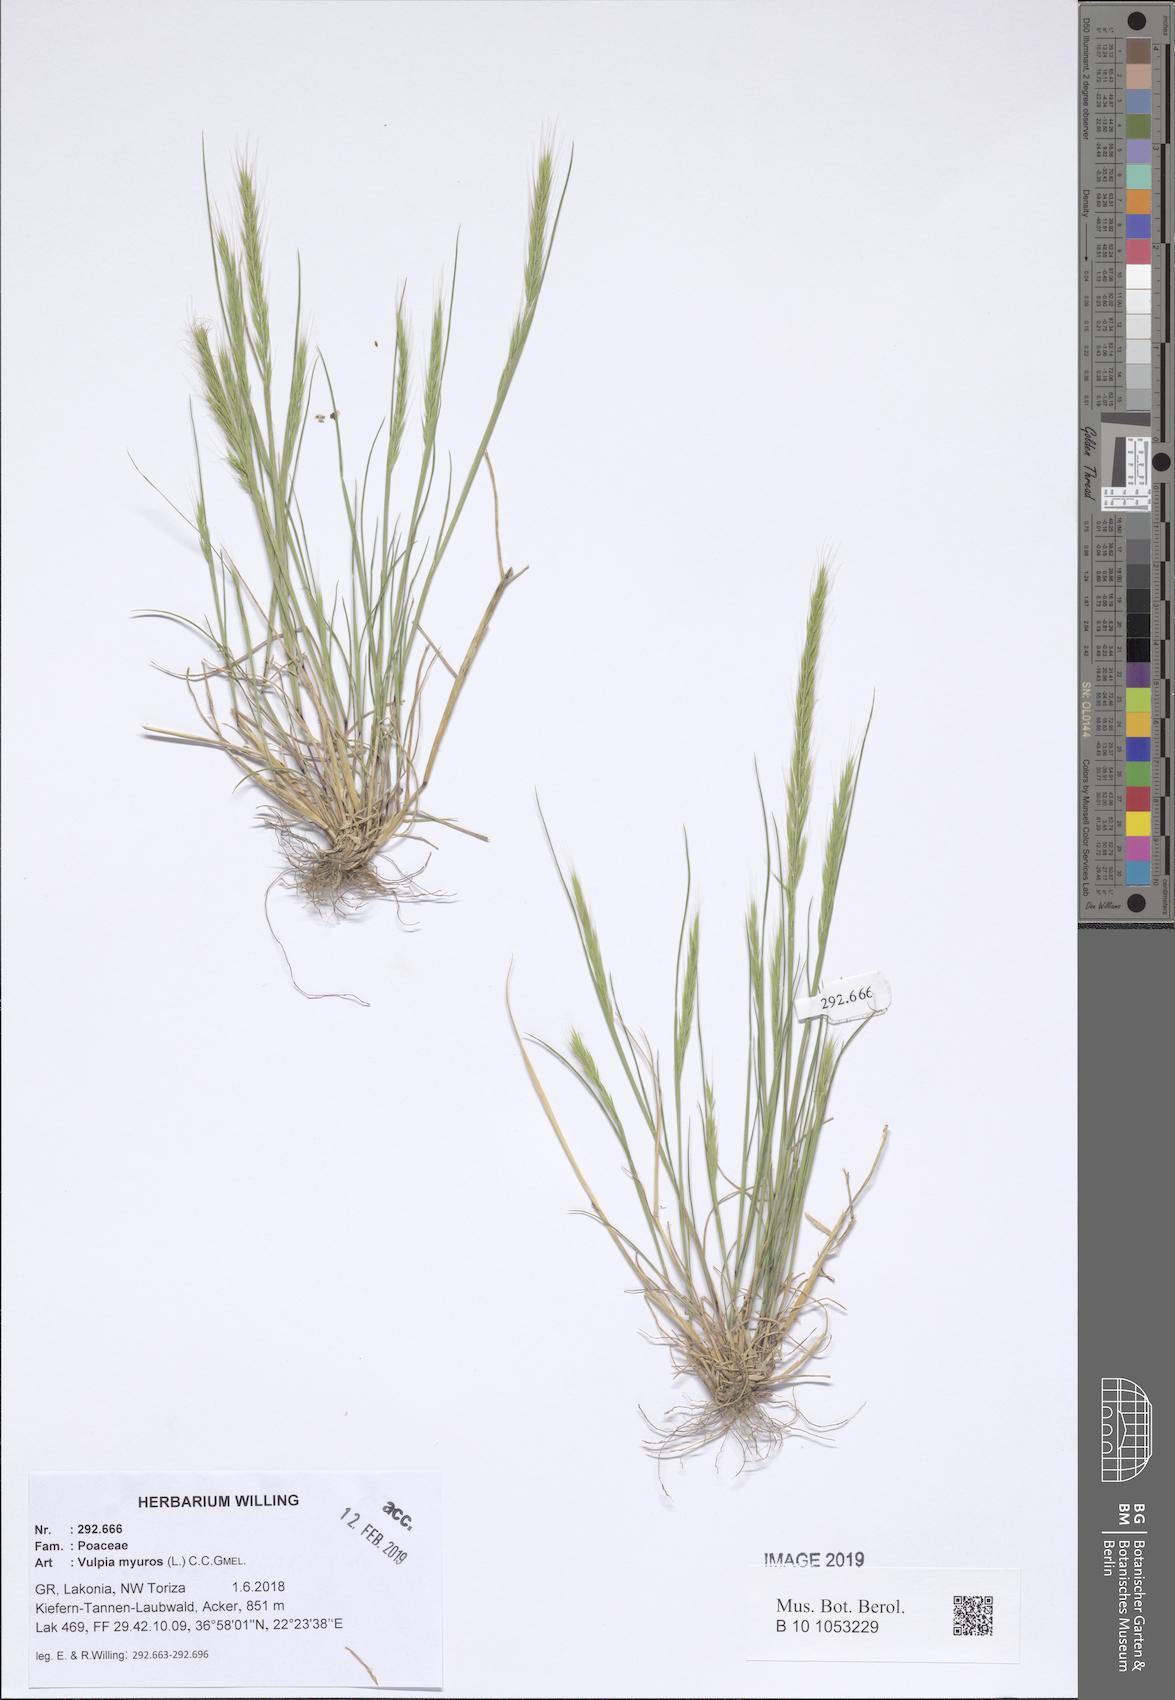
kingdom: Plantae
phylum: Tracheophyta
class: Liliopsida
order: Poales
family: Poaceae
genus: Festuca
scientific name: Festuca myuros
